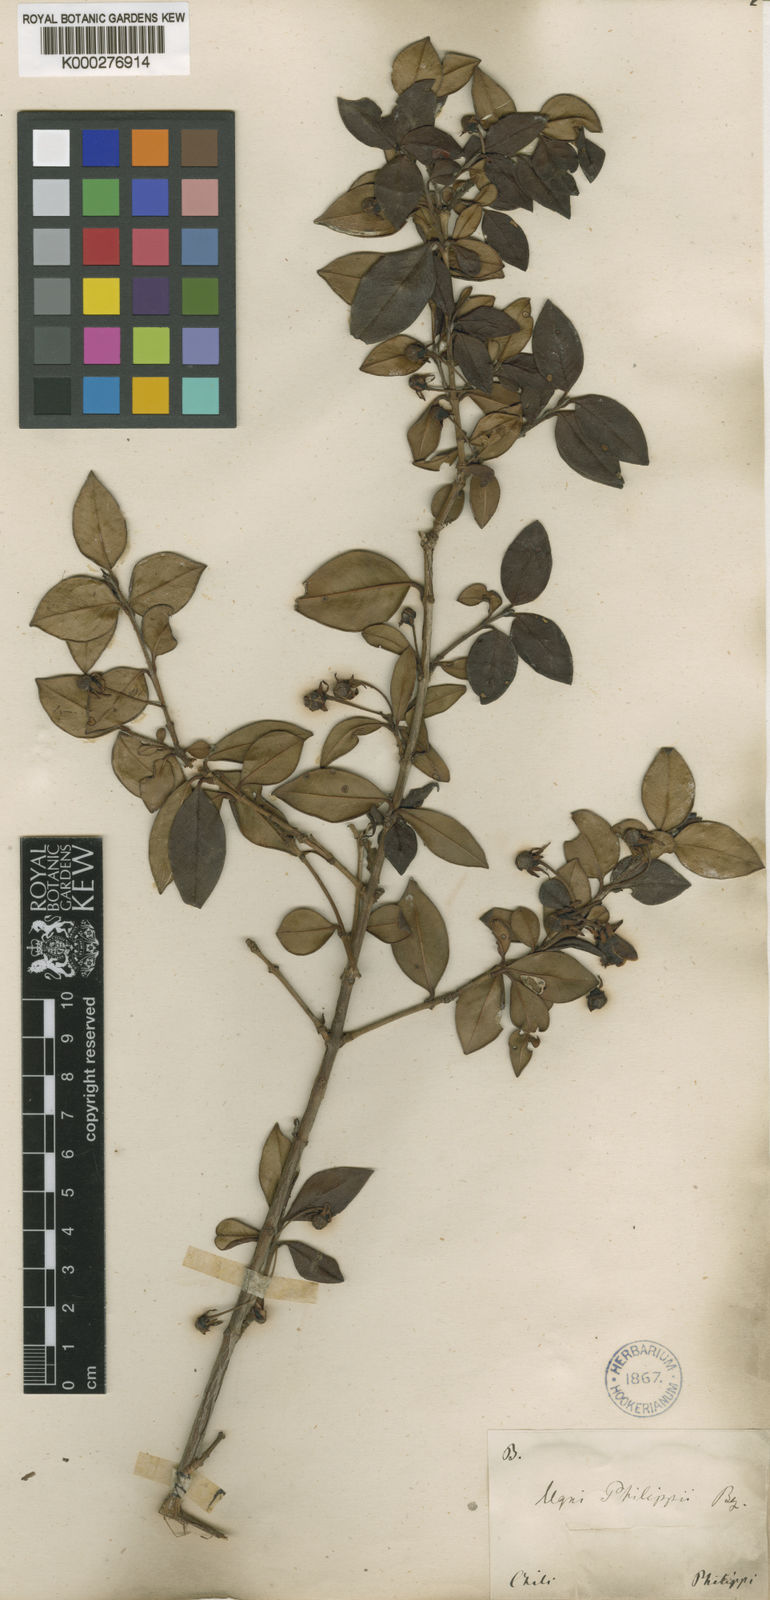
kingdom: Plantae
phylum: Tracheophyta
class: Magnoliopsida
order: Myrtales
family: Myrtaceae
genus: Ugni
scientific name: Ugni molinae
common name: Chilean-guava
